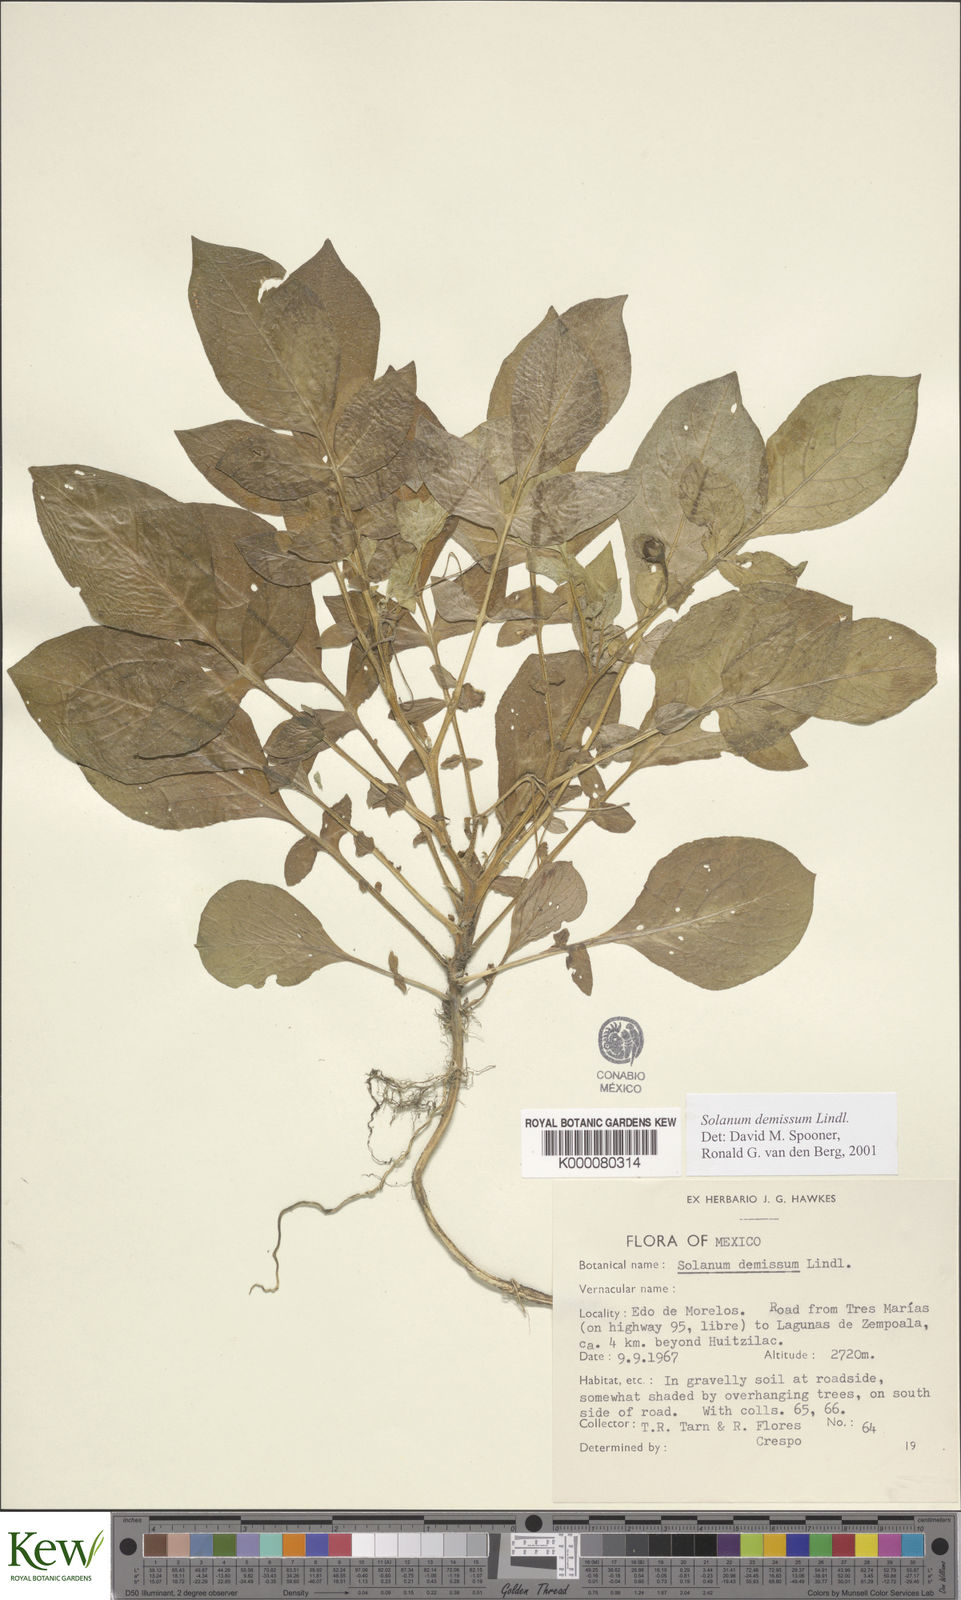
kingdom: Plantae
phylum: Tracheophyta
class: Magnoliopsida
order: Solanales
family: Solanaceae
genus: Solanum
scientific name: Solanum demissum
